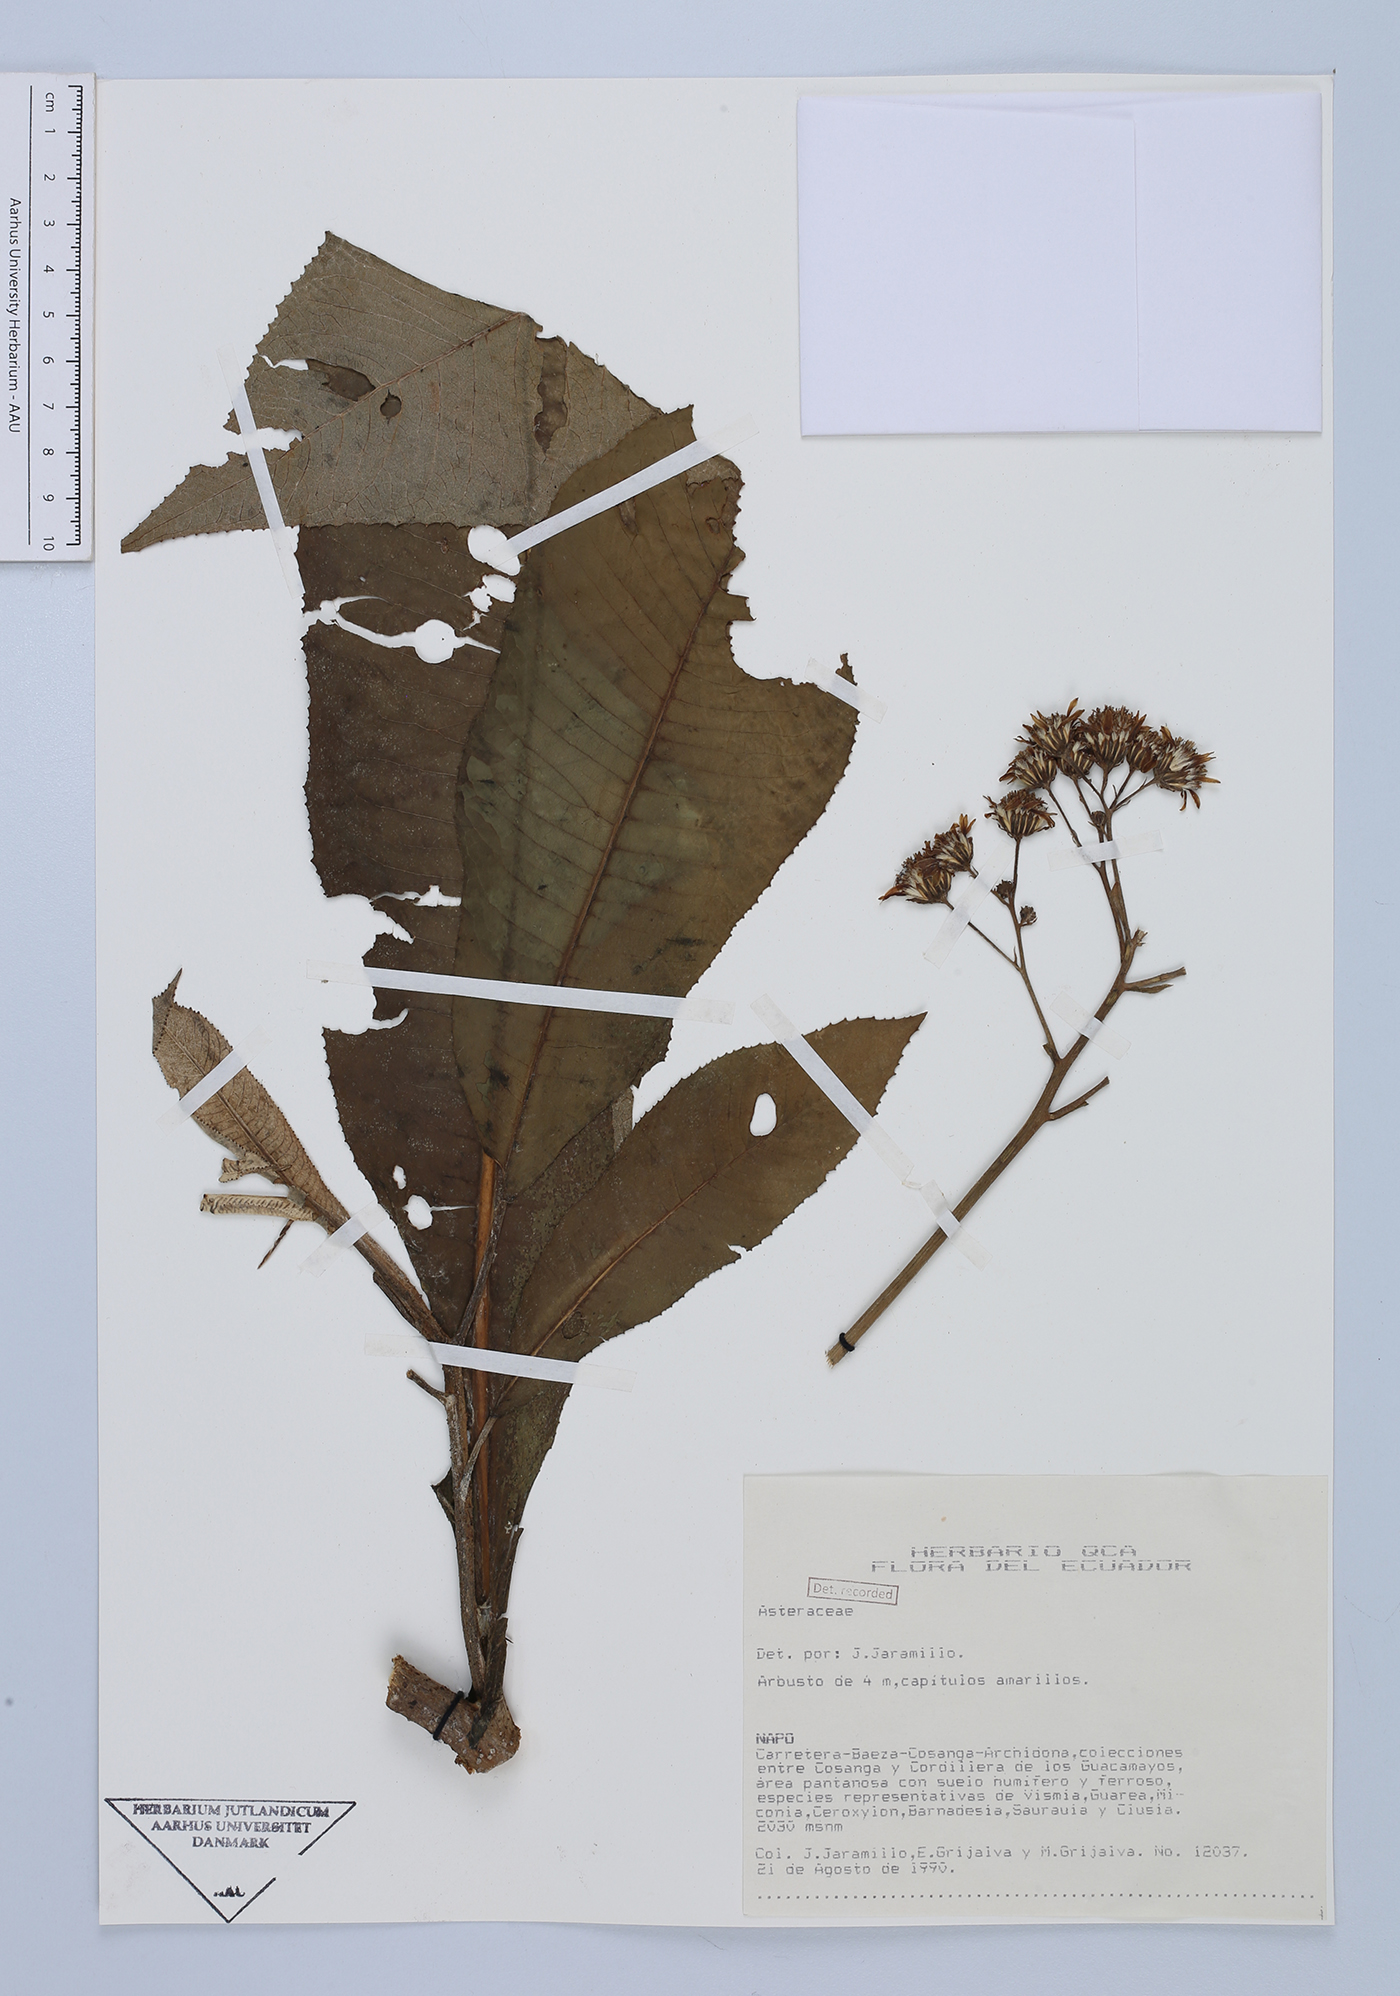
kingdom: Plantae
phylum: Tracheophyta
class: Magnoliopsida
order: Asterales
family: Asteraceae
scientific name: Asteraceae
